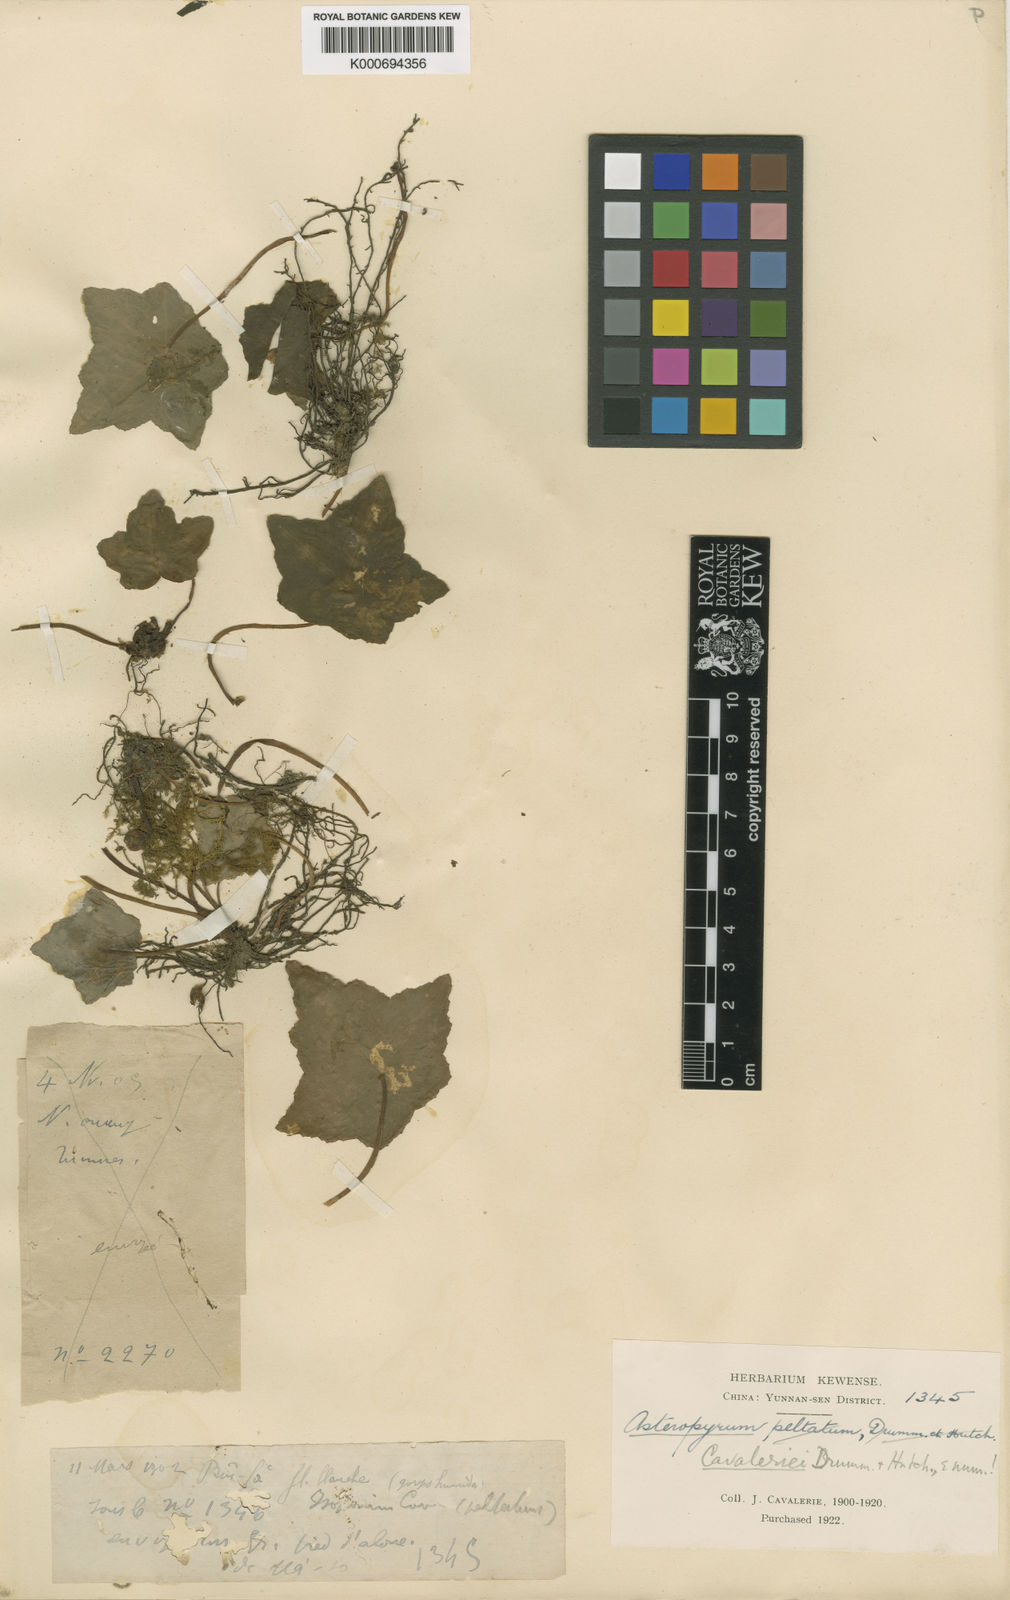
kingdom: Plantae
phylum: Tracheophyta
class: Magnoliopsida
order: Ranunculales
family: Ranunculaceae
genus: Asteropyrum
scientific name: Asteropyrum cavaleriei
